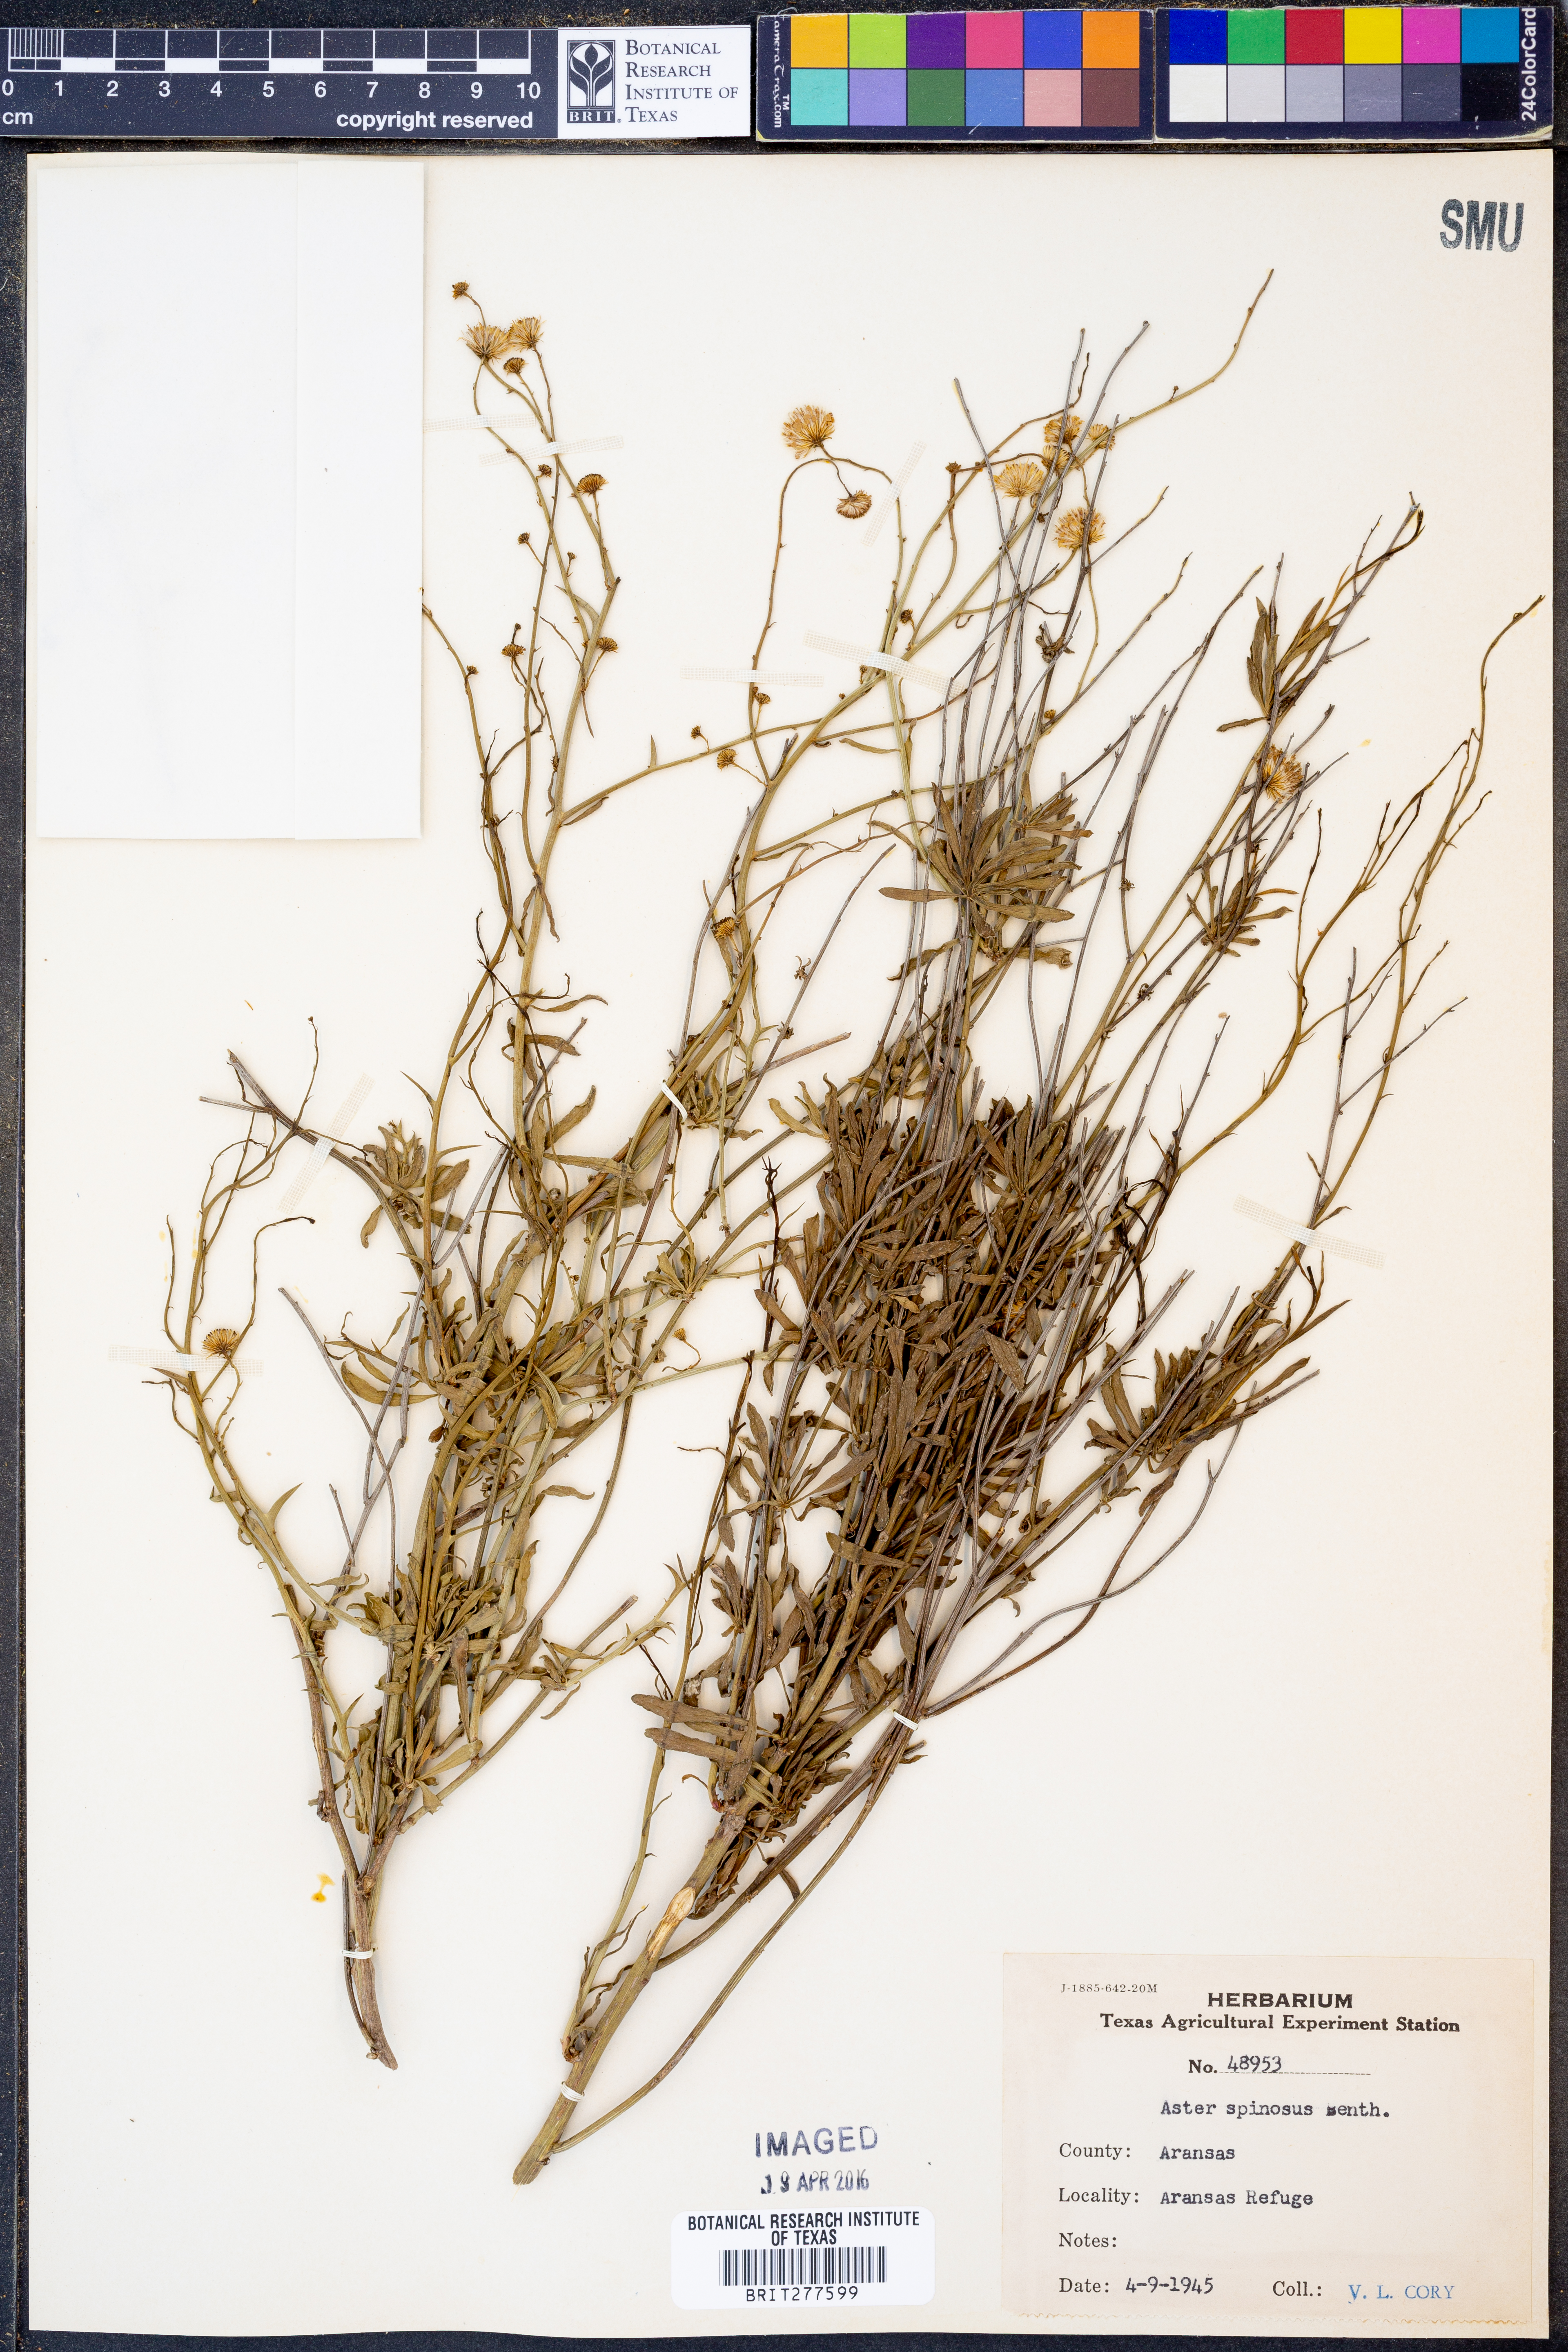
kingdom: Plantae
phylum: Tracheophyta
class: Magnoliopsida
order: Asterales
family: Asteraceae
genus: Chloracantha
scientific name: Chloracantha spinosa
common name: Mexican devilweed
